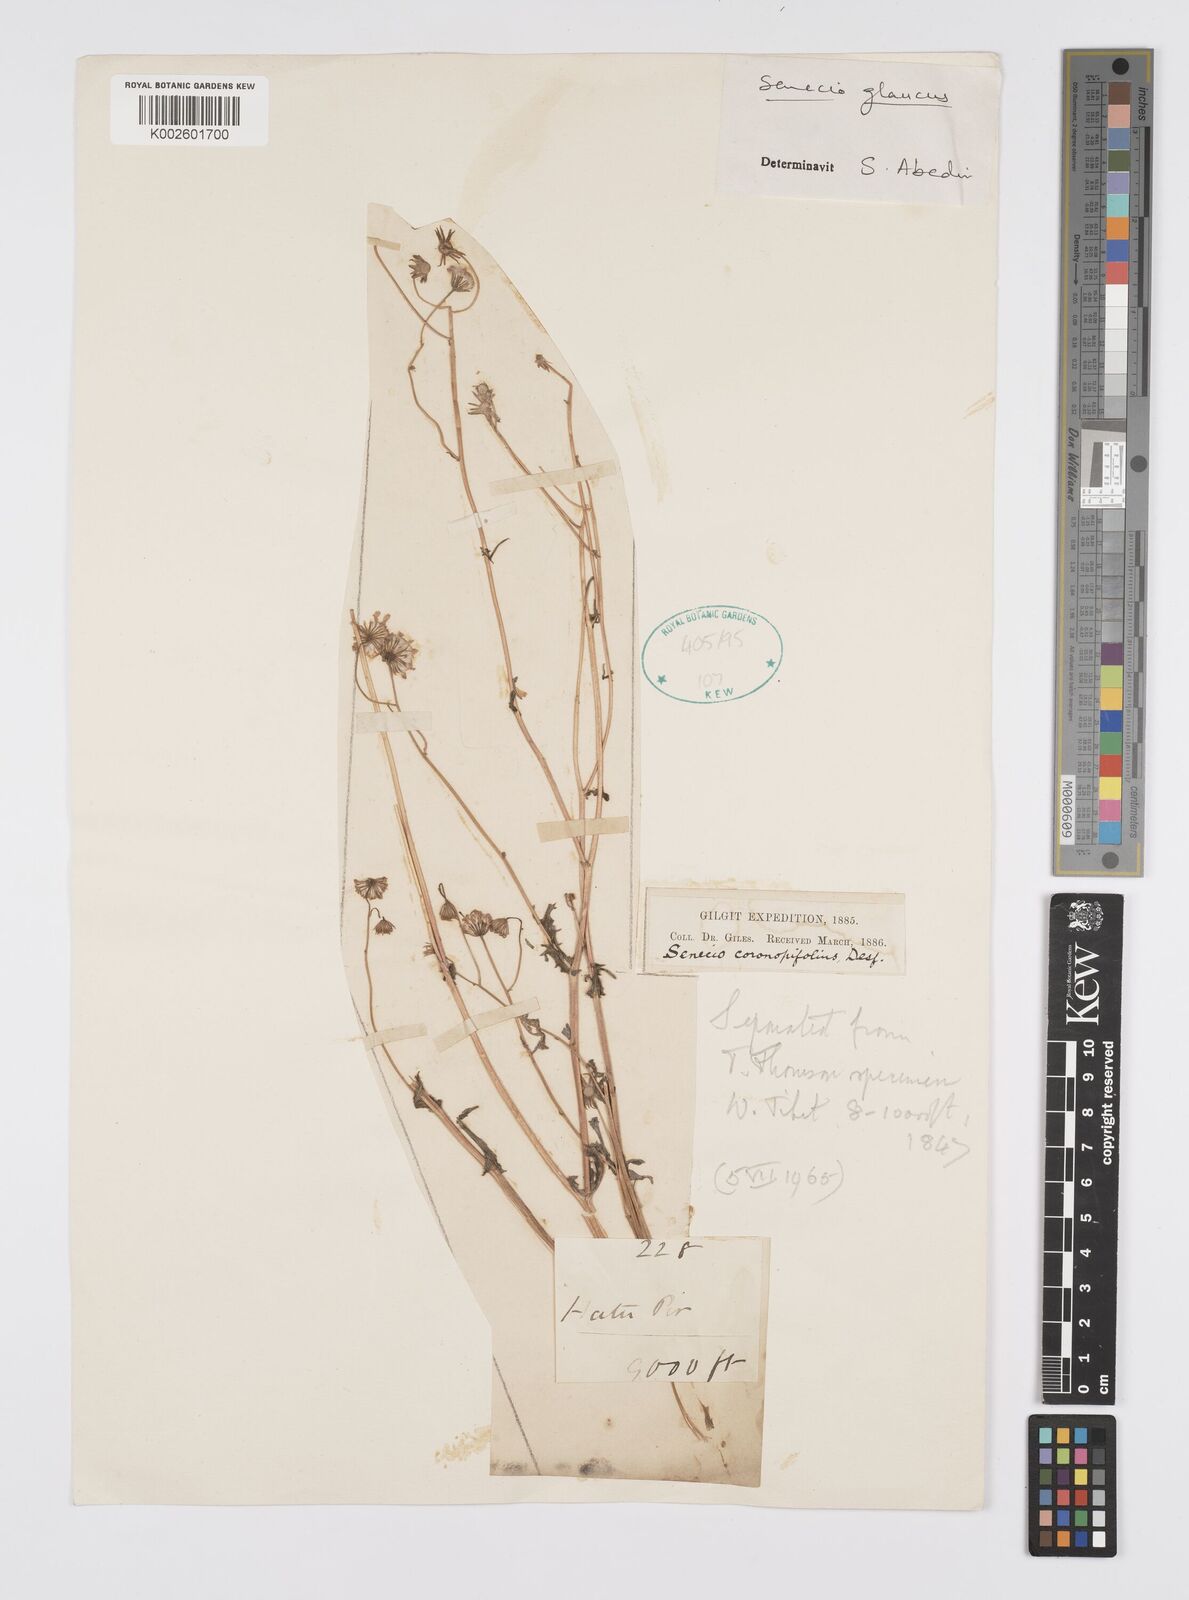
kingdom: Plantae
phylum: Tracheophyta
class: Magnoliopsida
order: Asterales
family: Asteraceae
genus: Senecio
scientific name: Senecio glaucus
